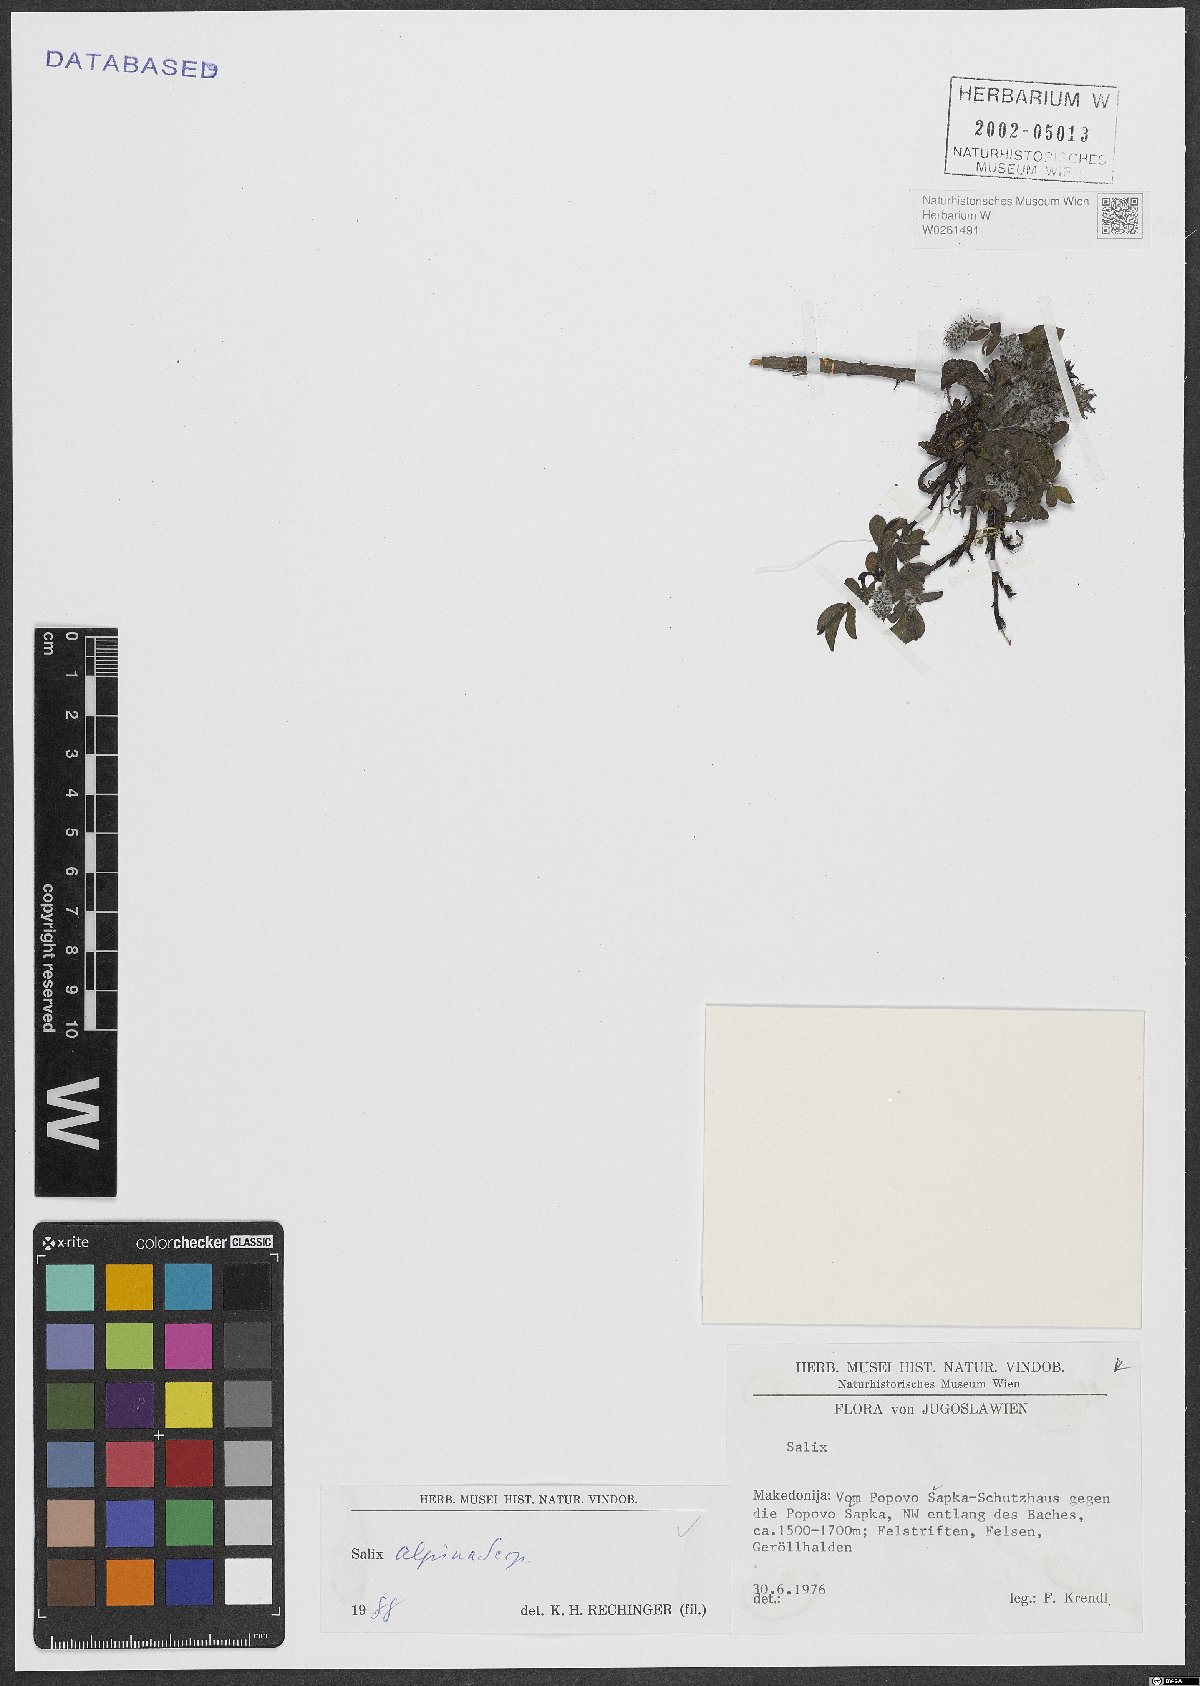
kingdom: Plantae
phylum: Tracheophyta
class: Magnoliopsida
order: Malpighiales
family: Salicaceae
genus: Salix
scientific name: Salix alpina
